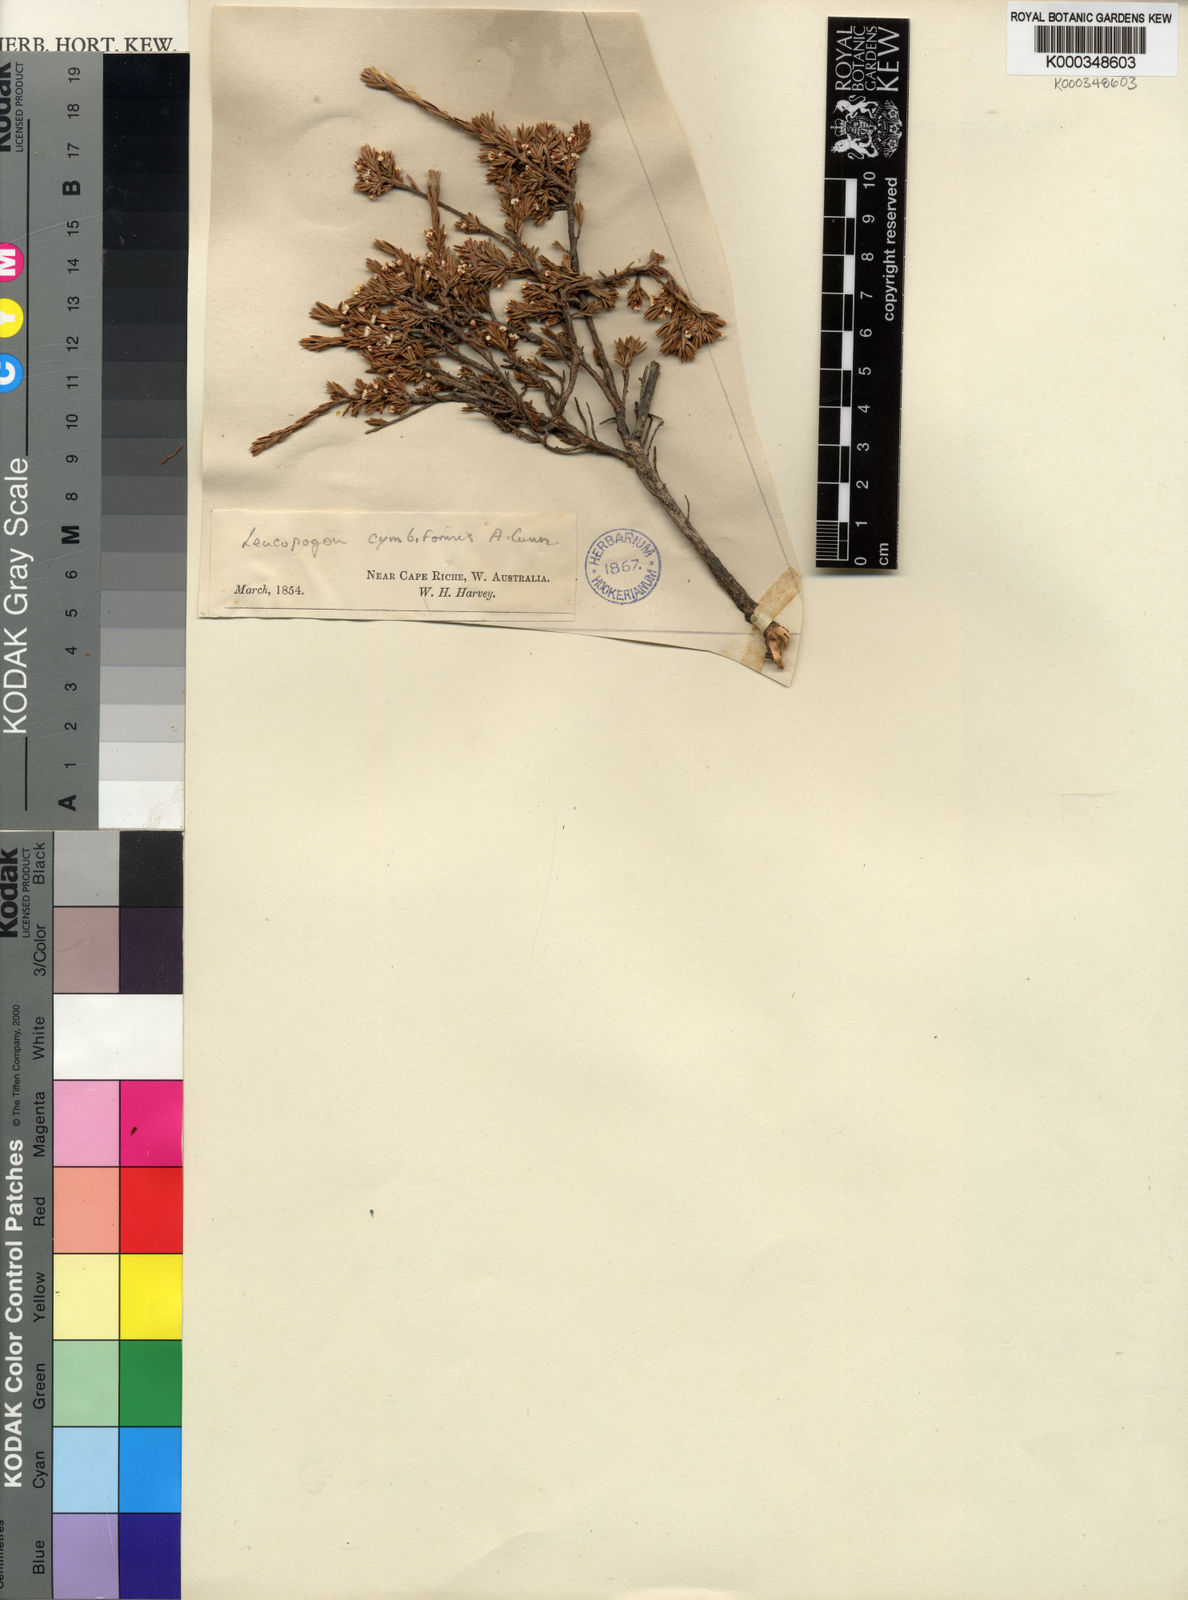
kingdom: Plantae
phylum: Tracheophyta
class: Magnoliopsida
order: Ericales
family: Ericaceae
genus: Styphelia
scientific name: Styphelia cymbiformis
